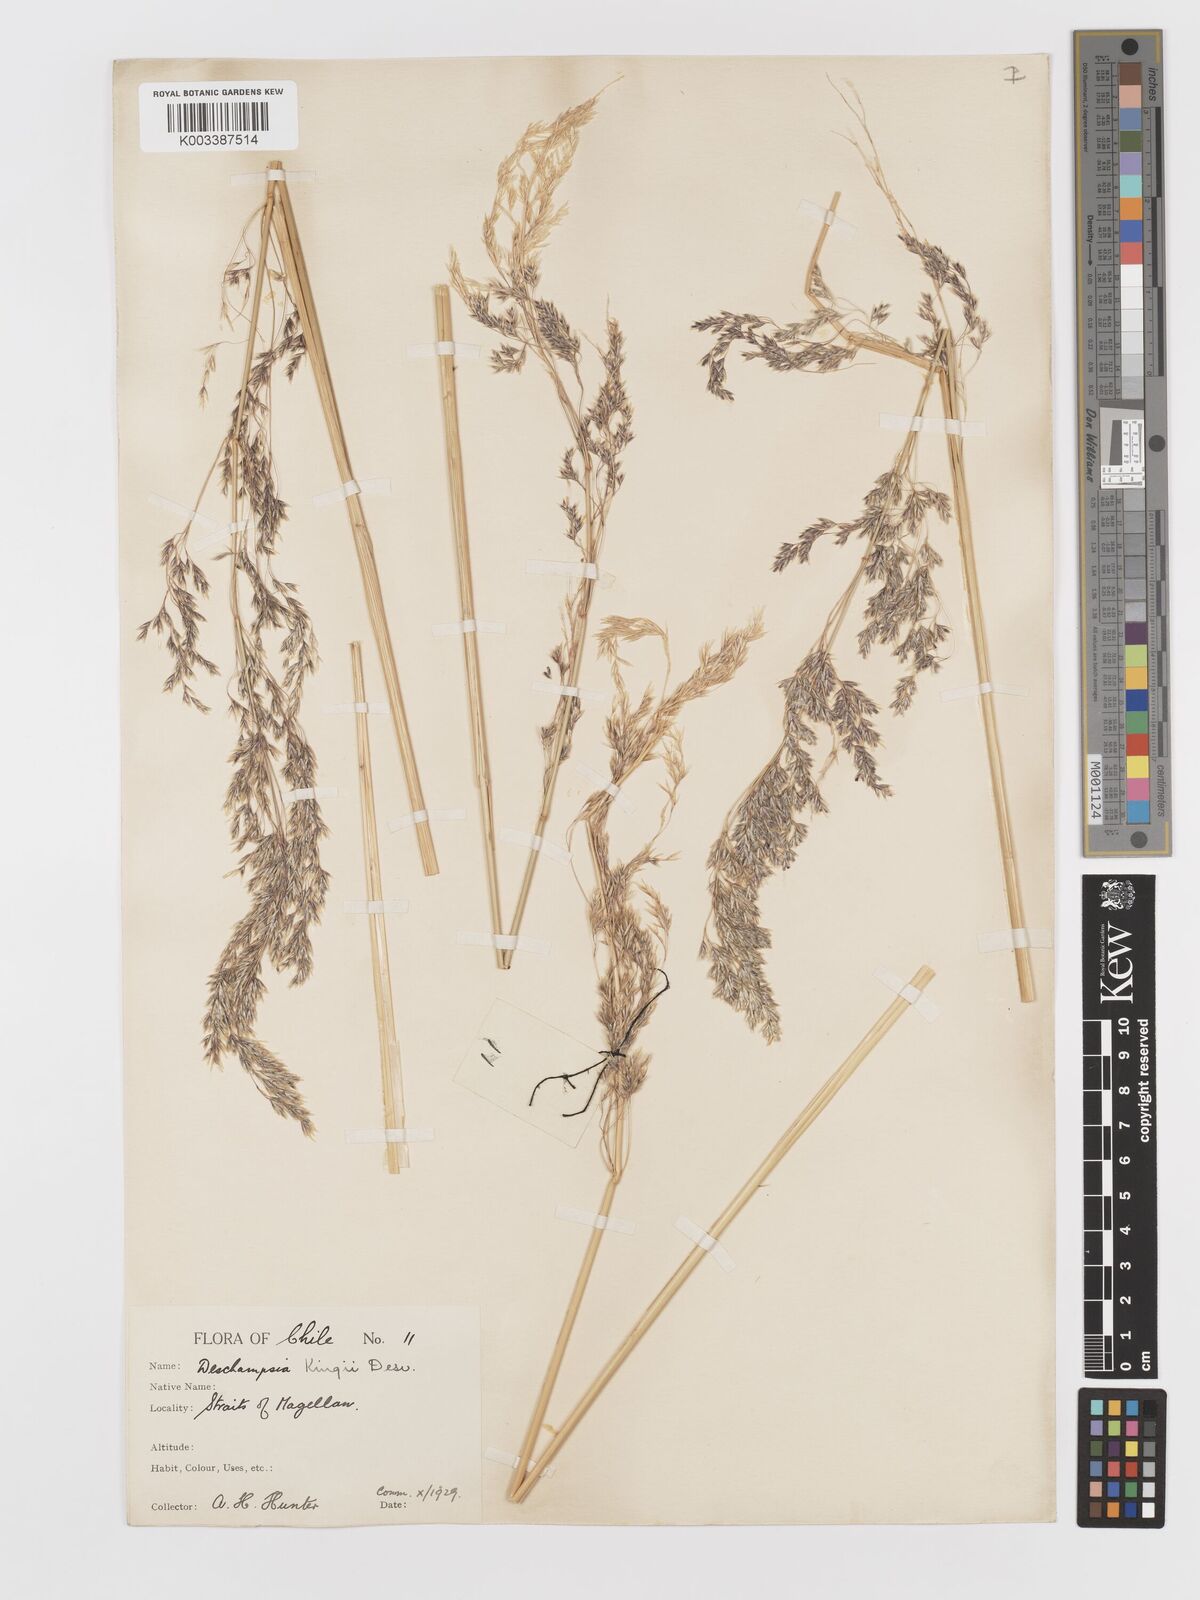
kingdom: Plantae
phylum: Tracheophyta
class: Liliopsida
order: Poales
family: Poaceae
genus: Deschampsia
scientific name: Deschampsia kingii
